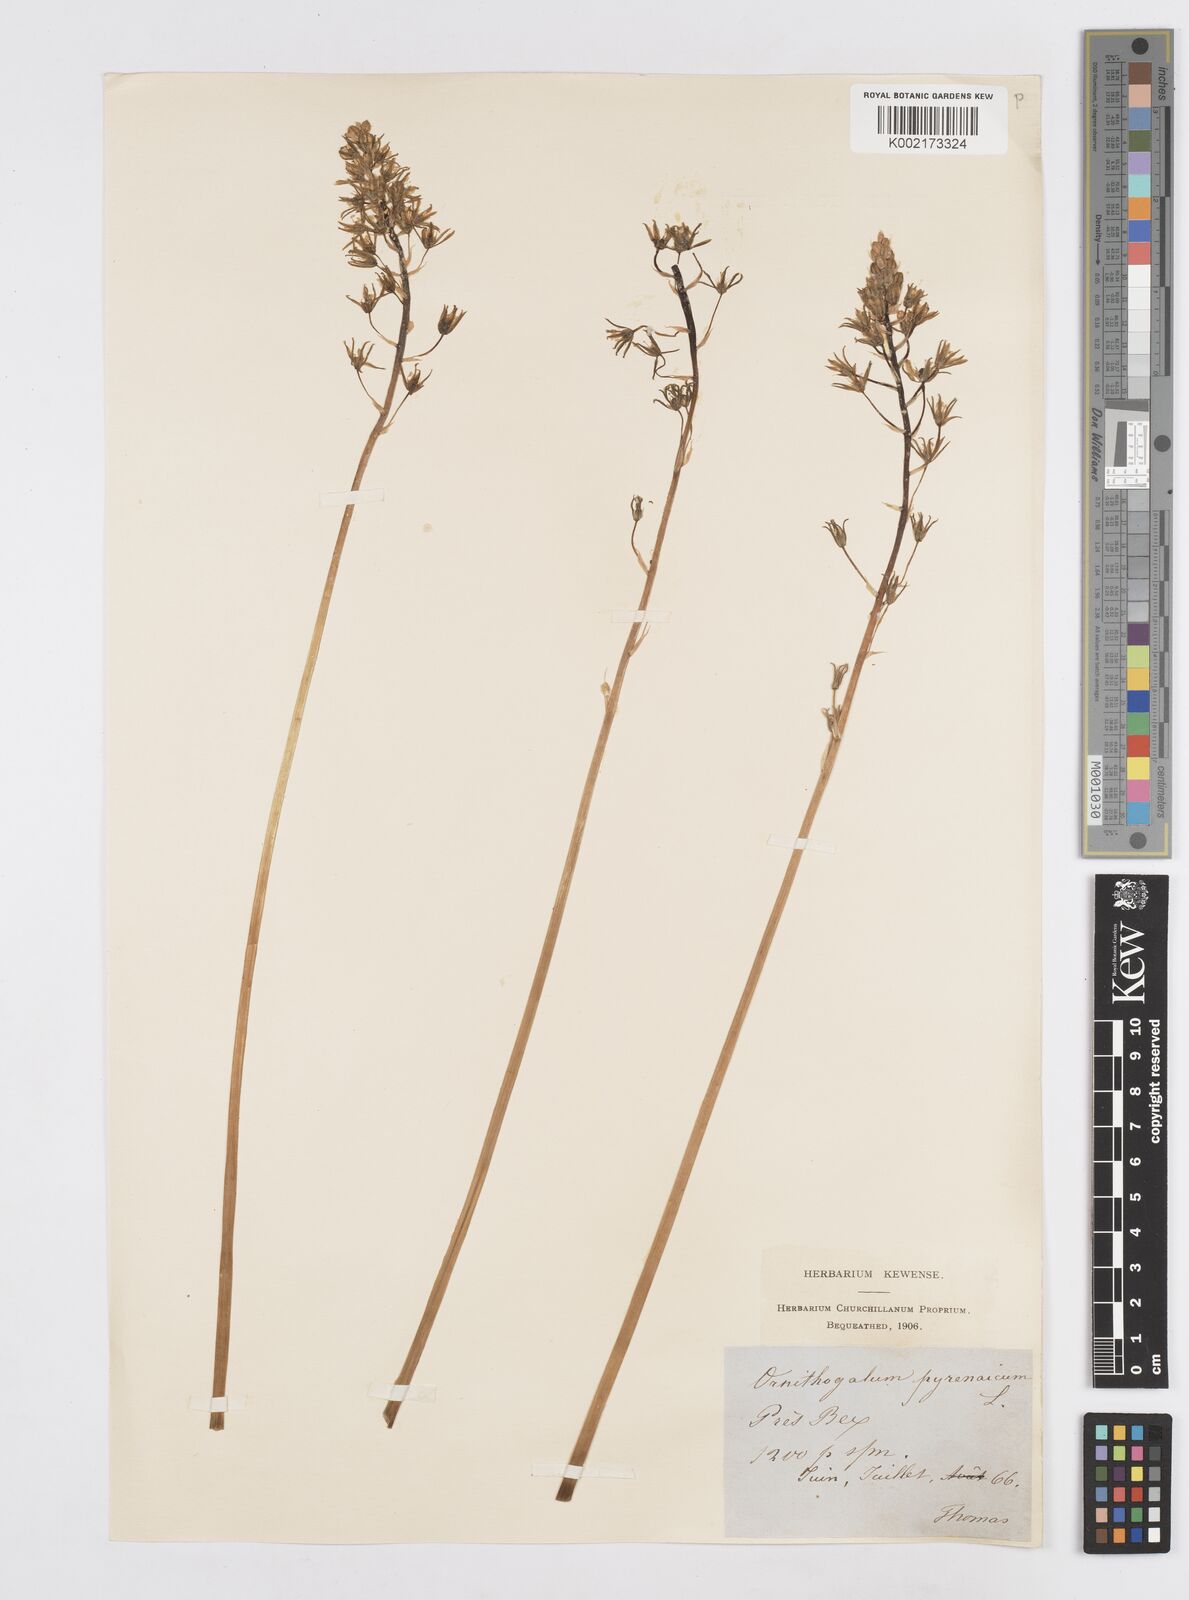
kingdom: Plantae
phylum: Tracheophyta
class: Liliopsida
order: Asparagales
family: Asparagaceae
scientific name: Asparagaceae
